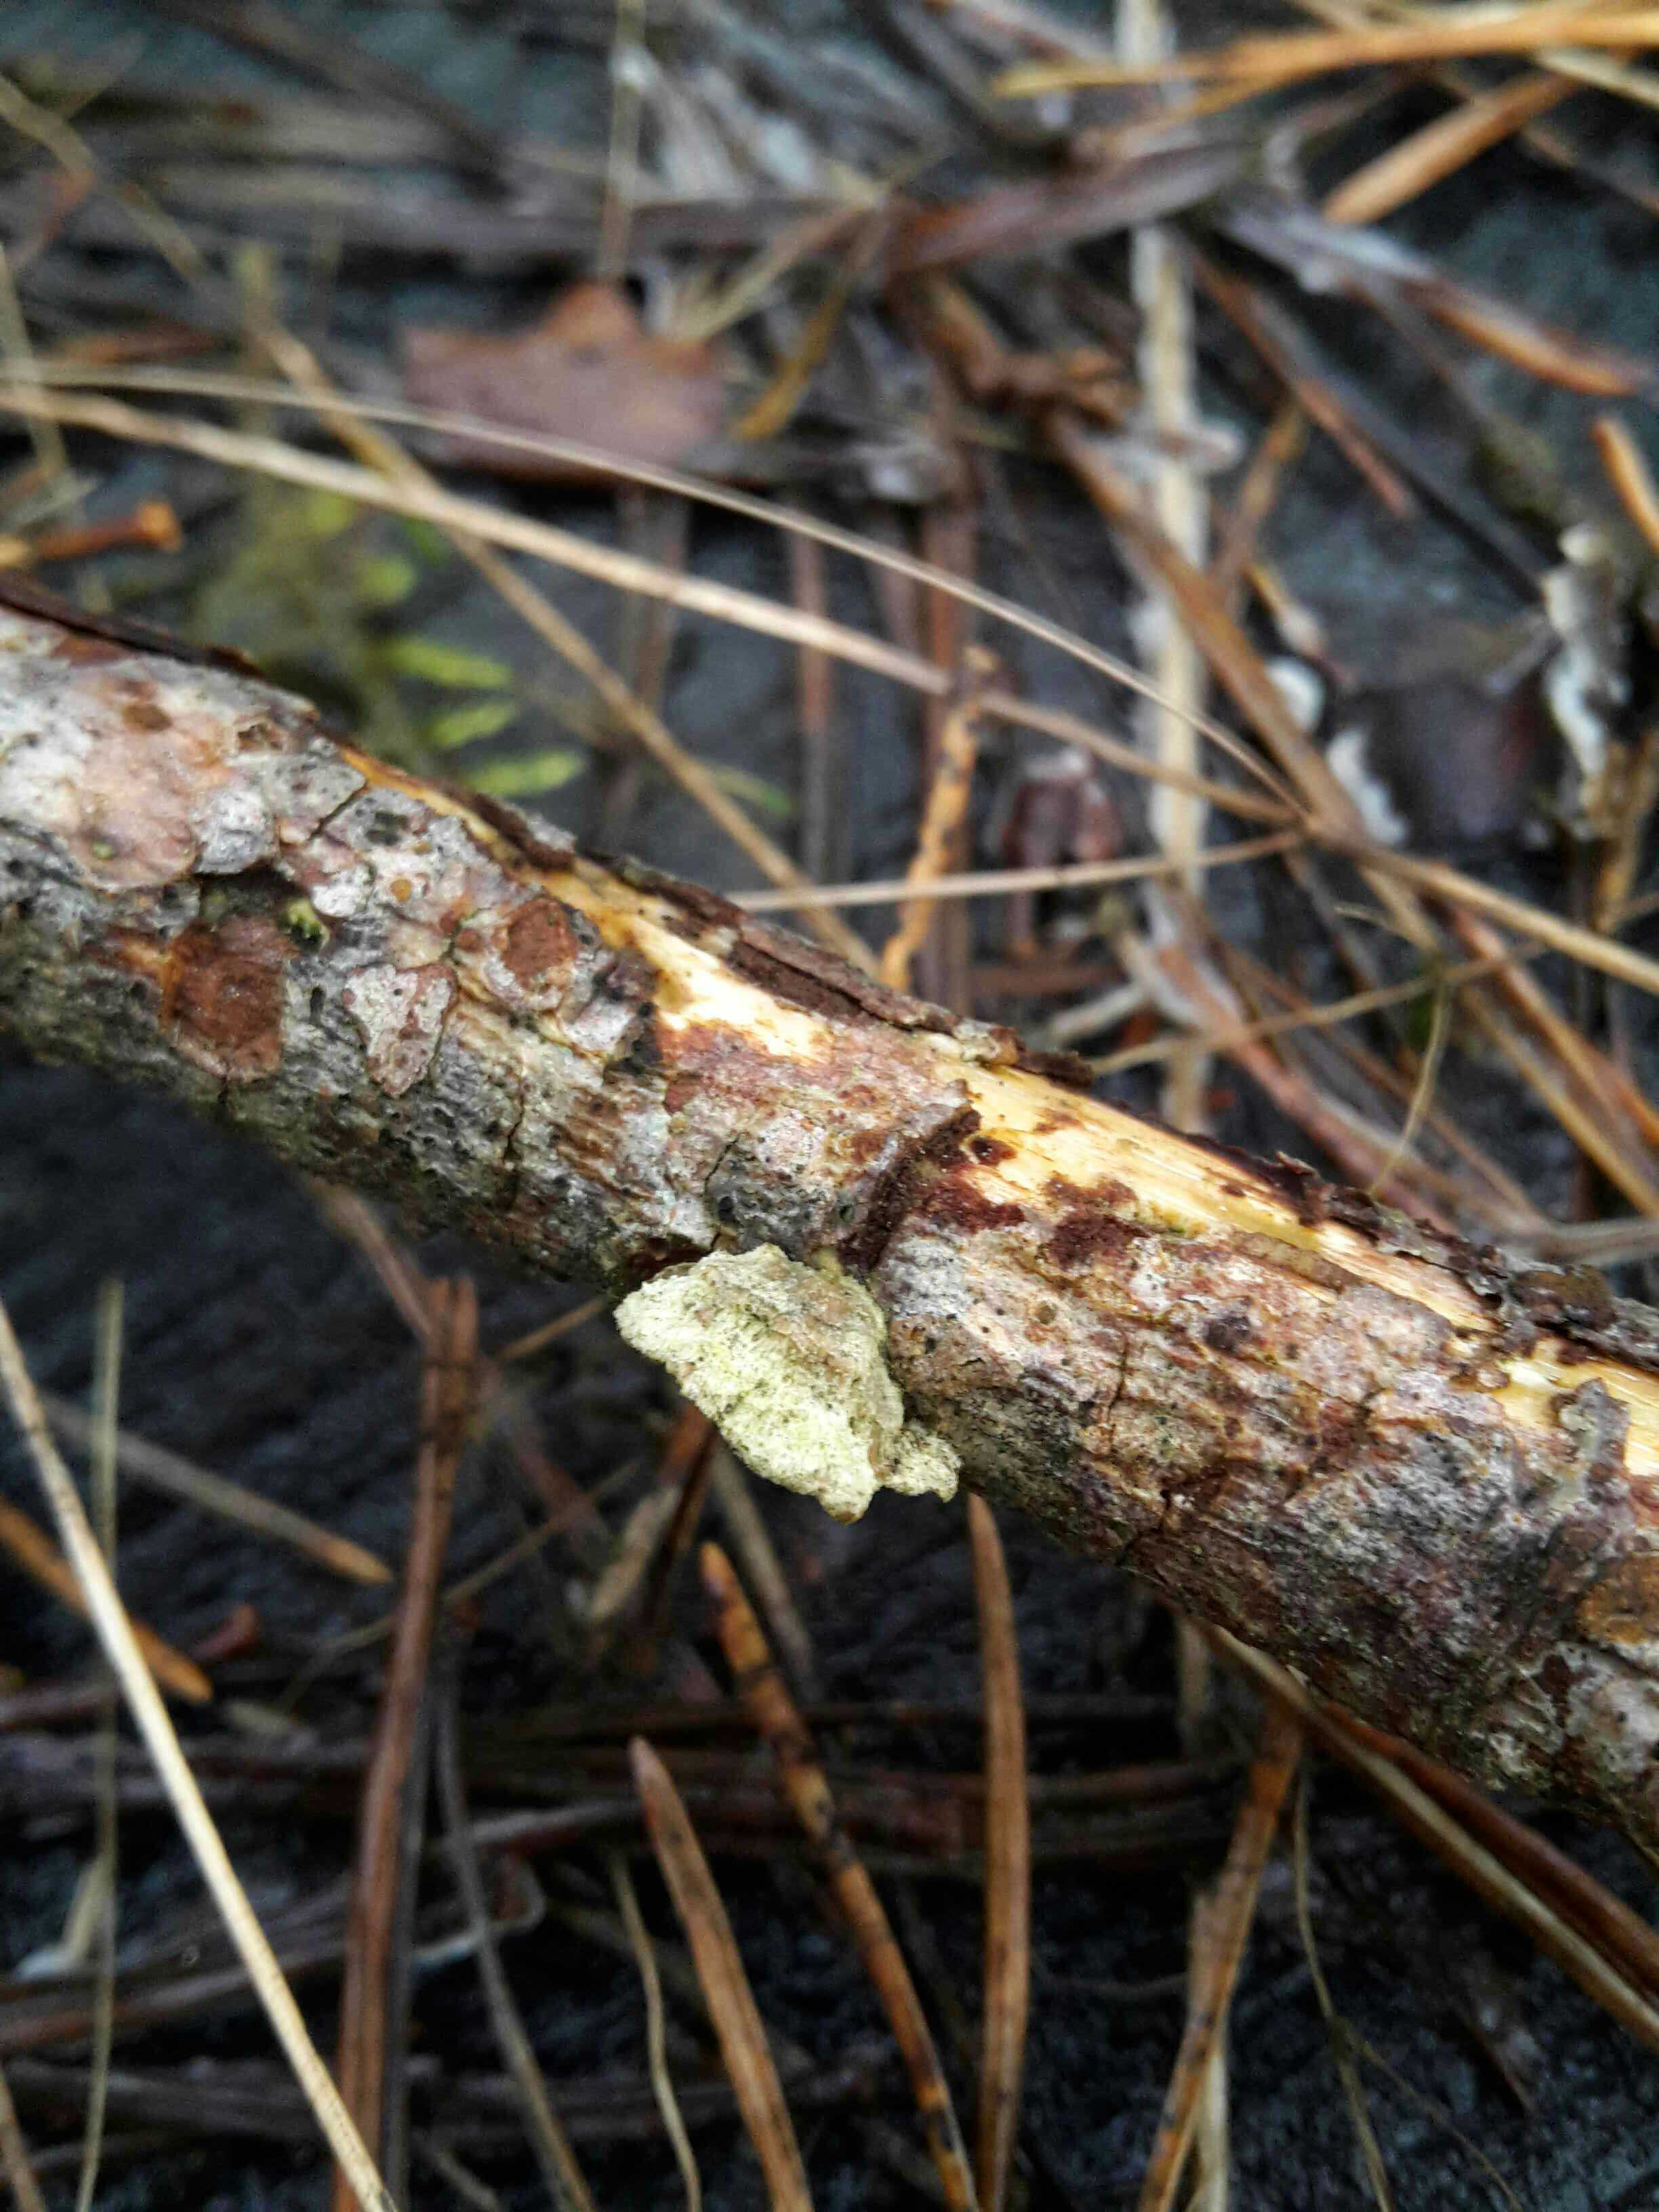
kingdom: Fungi
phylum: Basidiomycota
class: Agaricomycetes
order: Hymenochaetales
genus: Trichaptum
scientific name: Trichaptum abietinum
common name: almindelig violporesvamp
